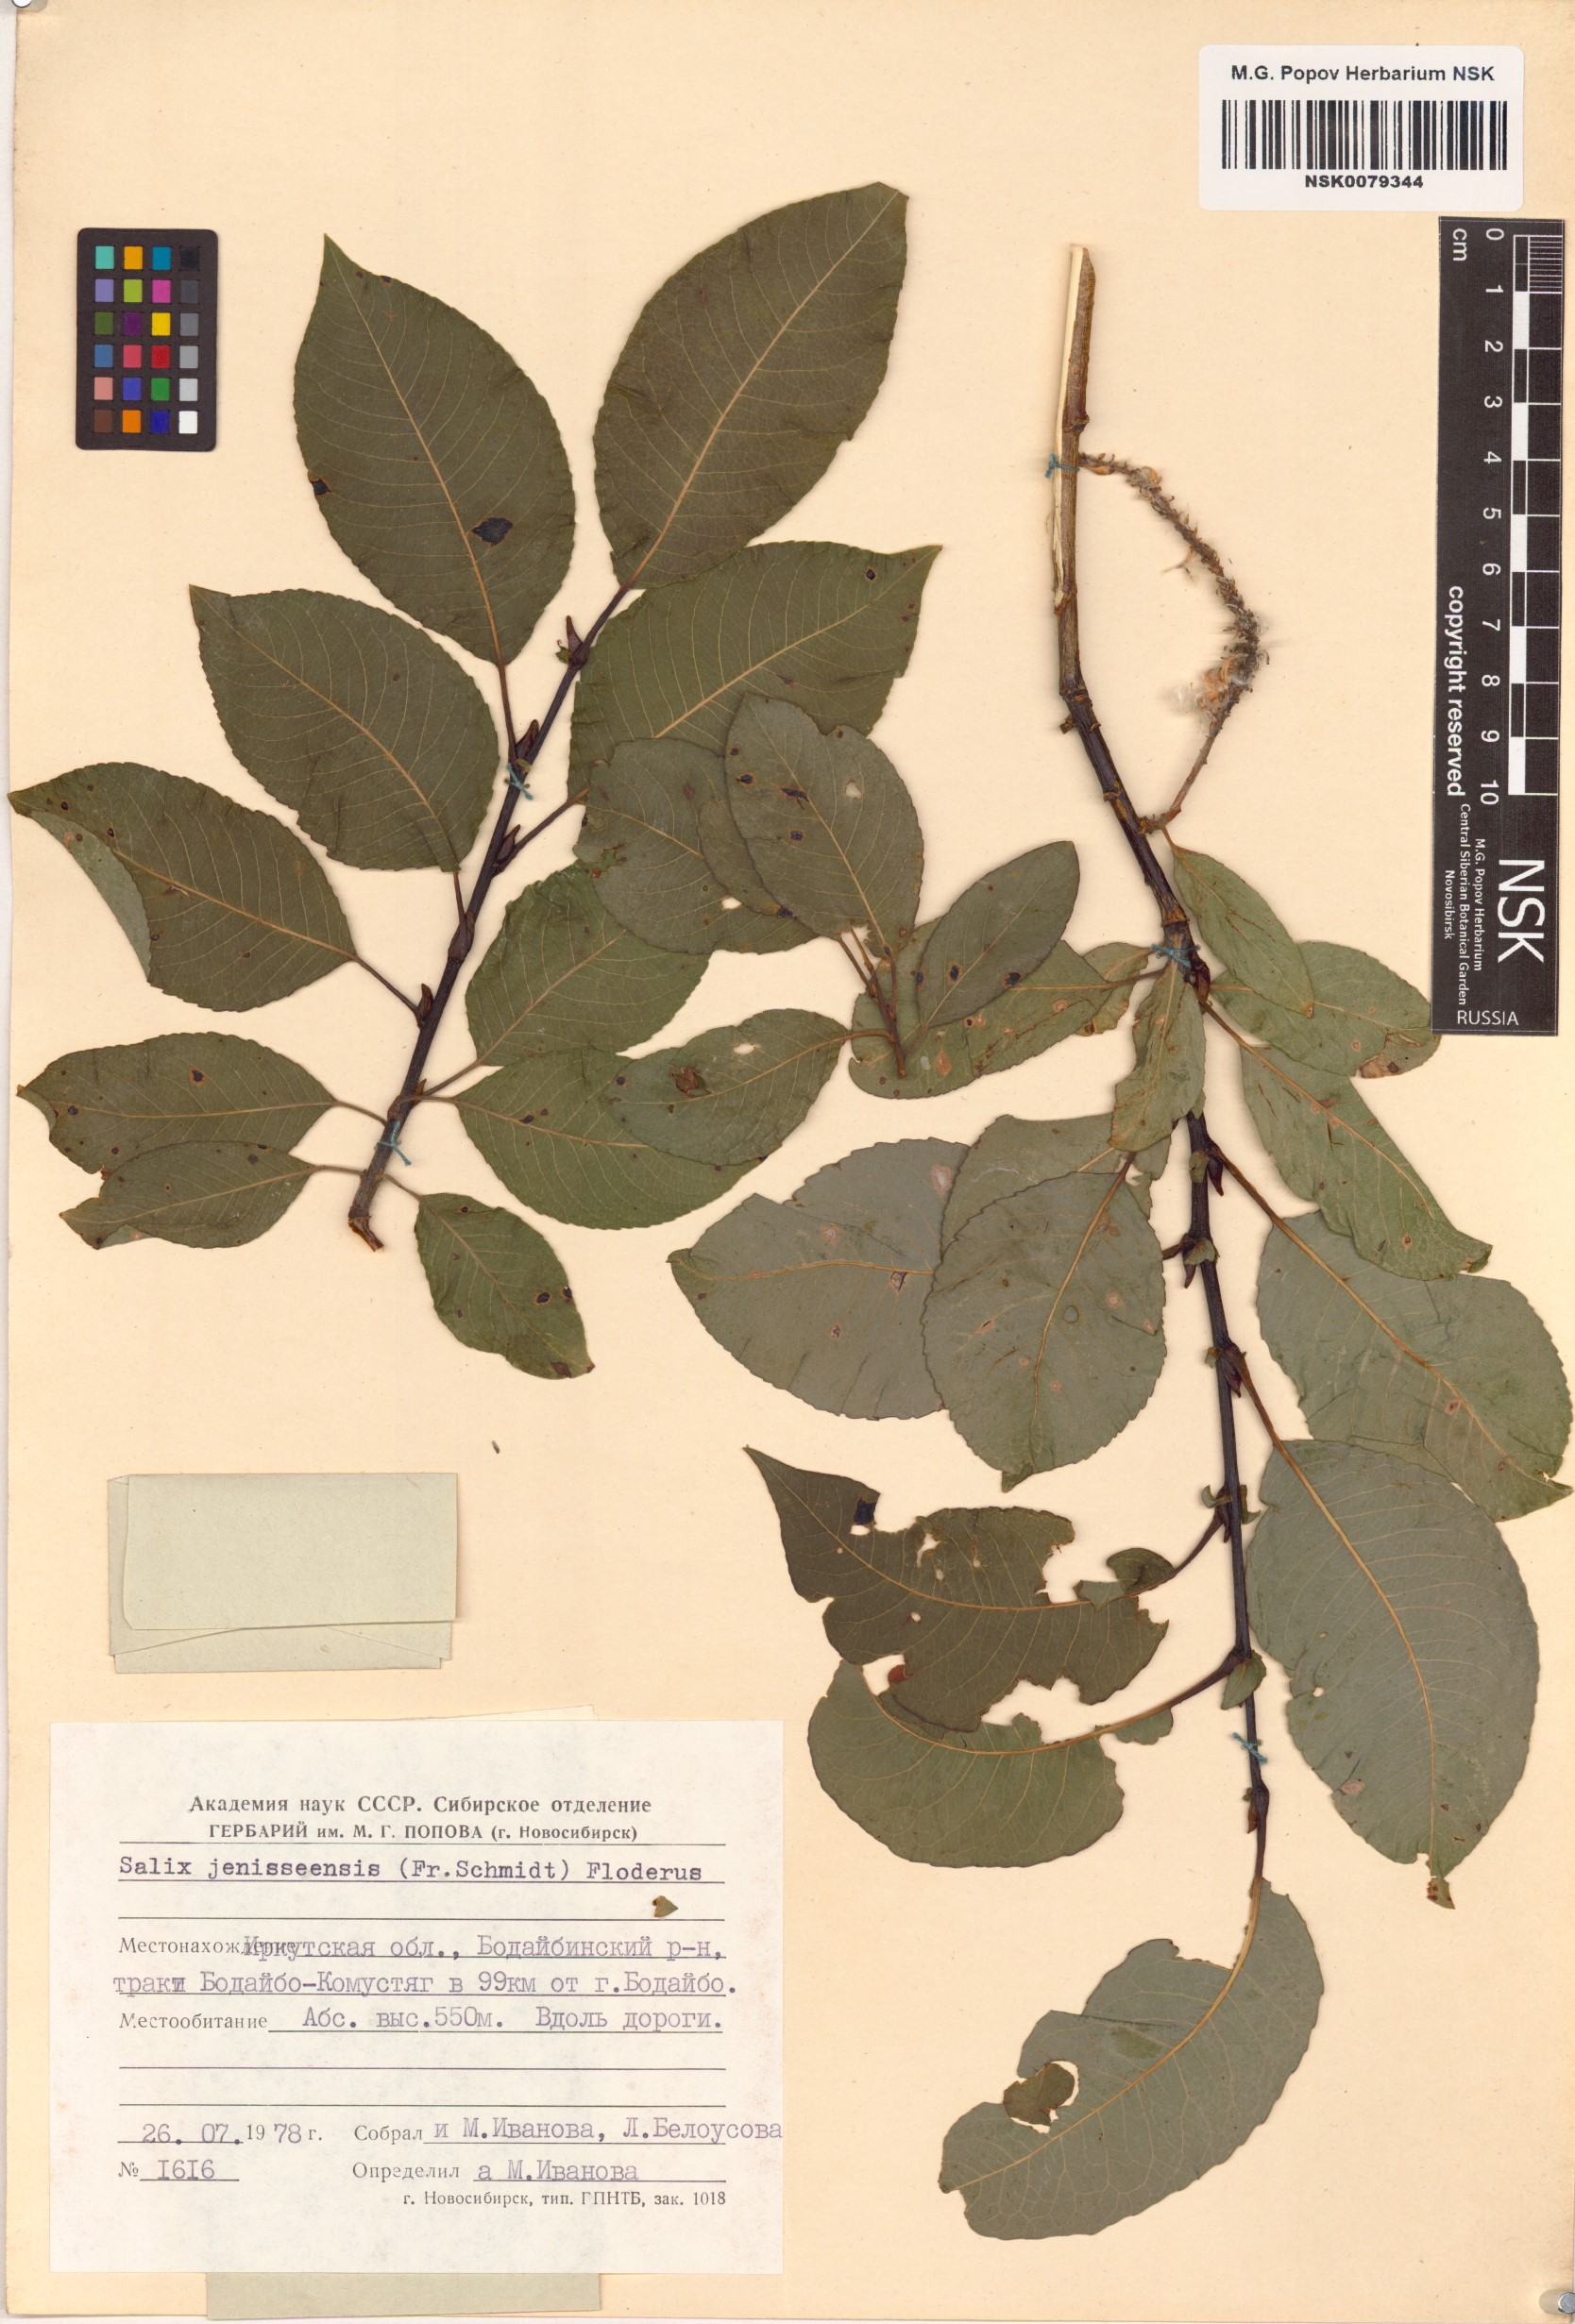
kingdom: Plantae
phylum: Tracheophyta
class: Magnoliopsida
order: Malpighiales
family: Salicaceae
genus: Salix
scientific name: Salix jenisseensis
